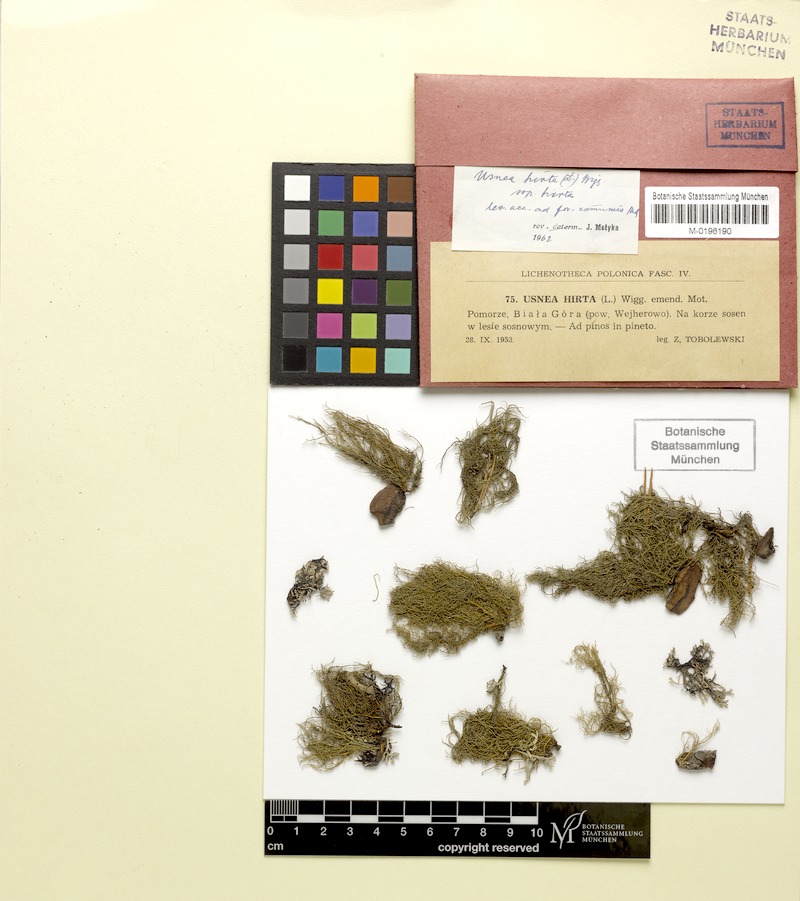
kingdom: Fungi
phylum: Ascomycota
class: Lecanoromycetes
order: Lecanorales
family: Parmeliaceae
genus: Usnea
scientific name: Usnea hirta
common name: Bristly beard lichen
